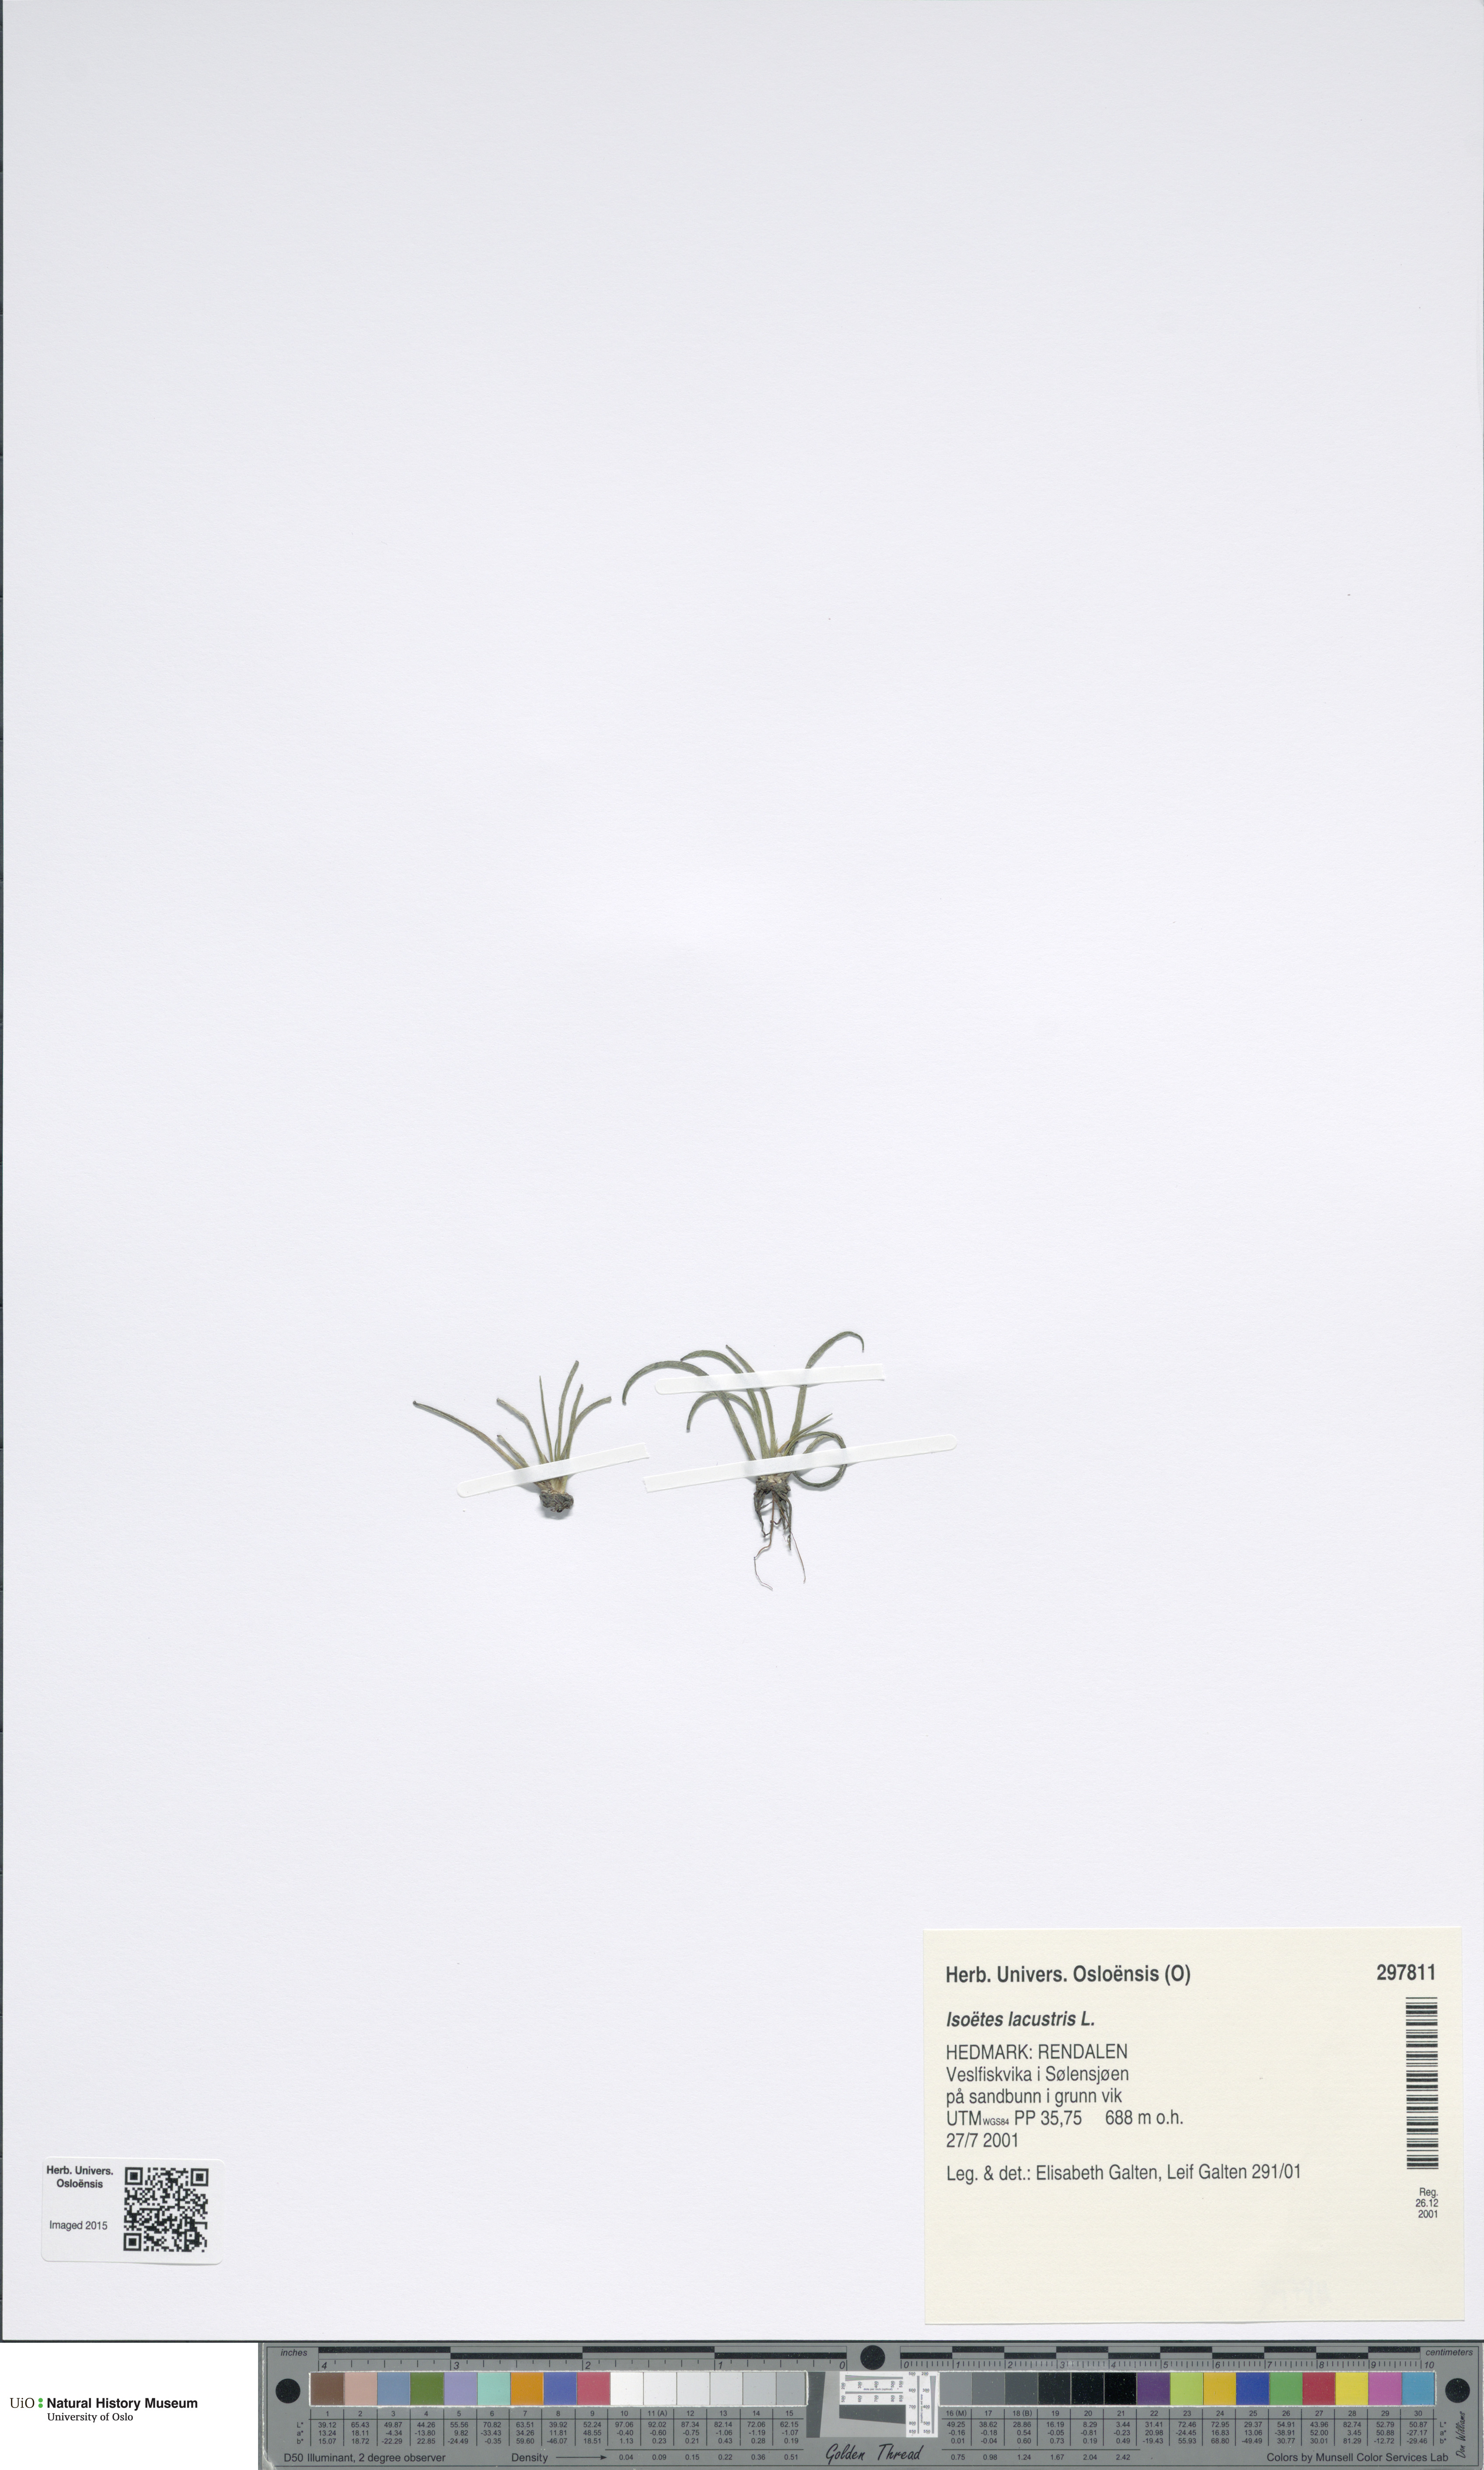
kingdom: Plantae
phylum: Tracheophyta
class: Lycopodiopsida
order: Isoetales
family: Isoetaceae
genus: Isoetes
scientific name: Isoetes lacustris
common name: Common quillwort
